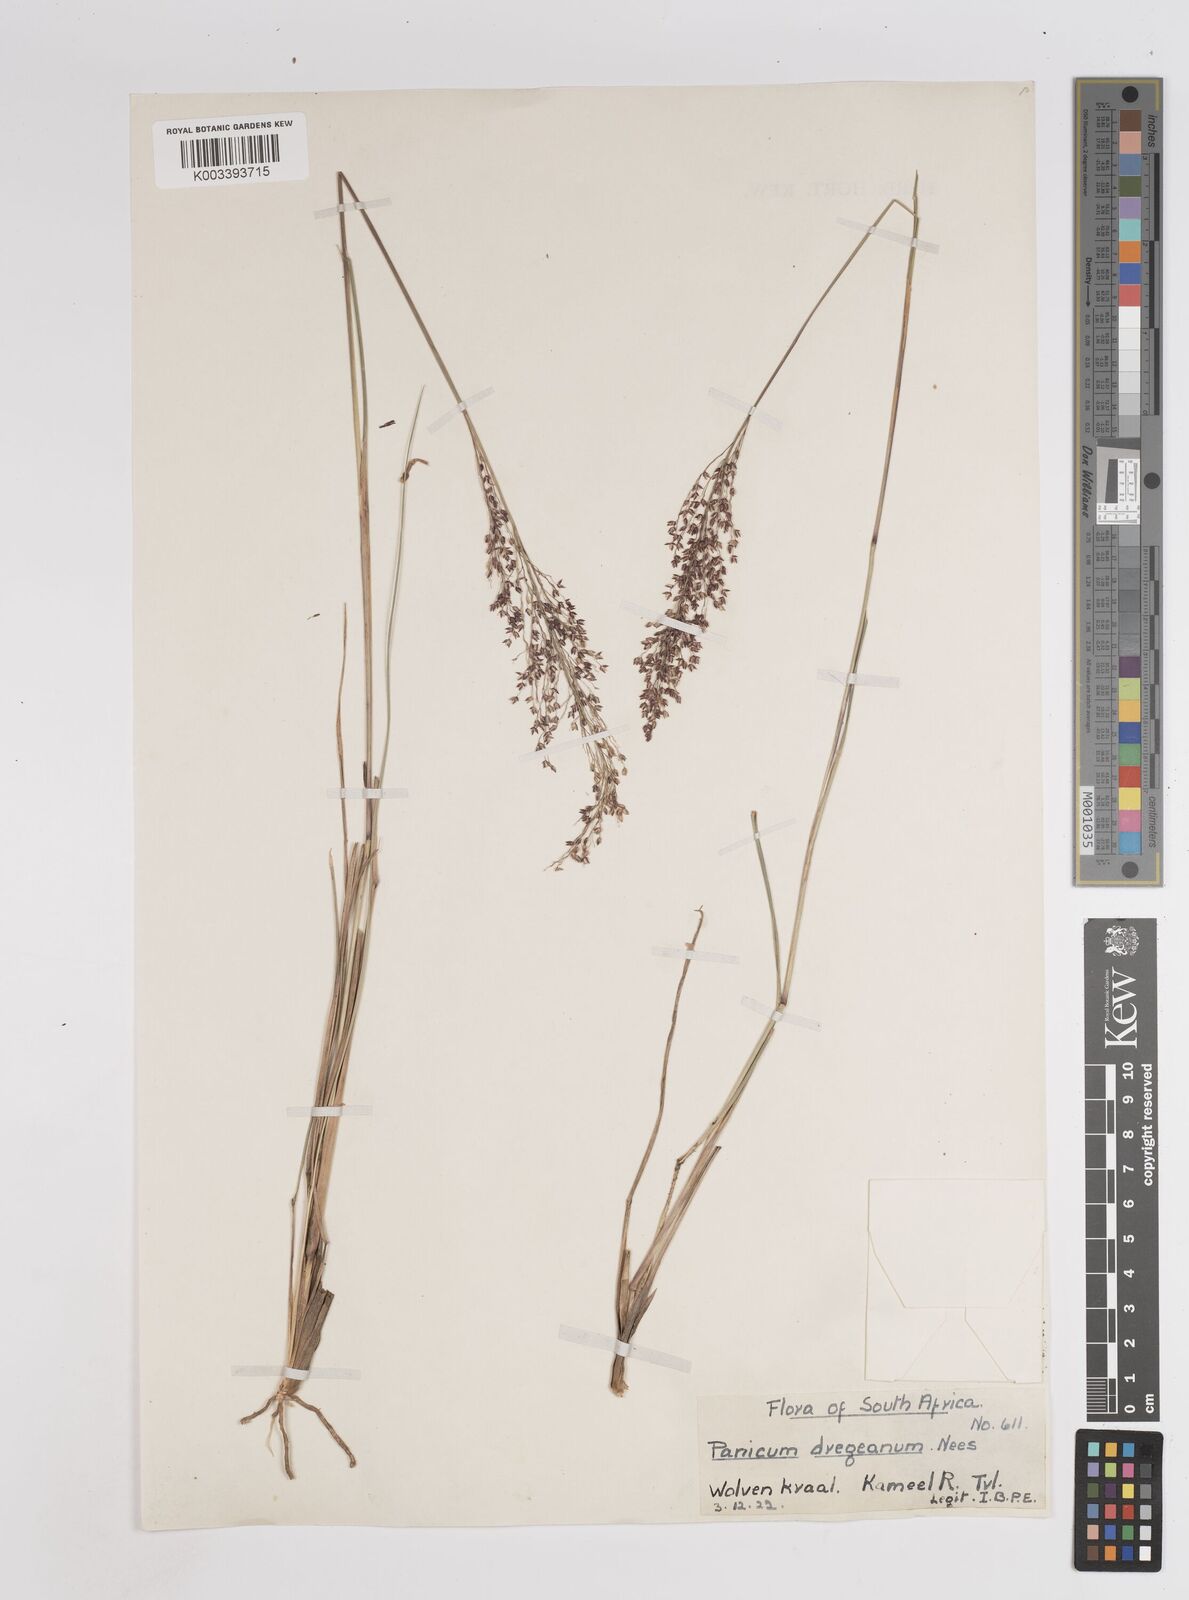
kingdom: Plantae
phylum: Tracheophyta
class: Liliopsida
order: Poales
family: Poaceae
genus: Panicum
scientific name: Panicum dregeanum
